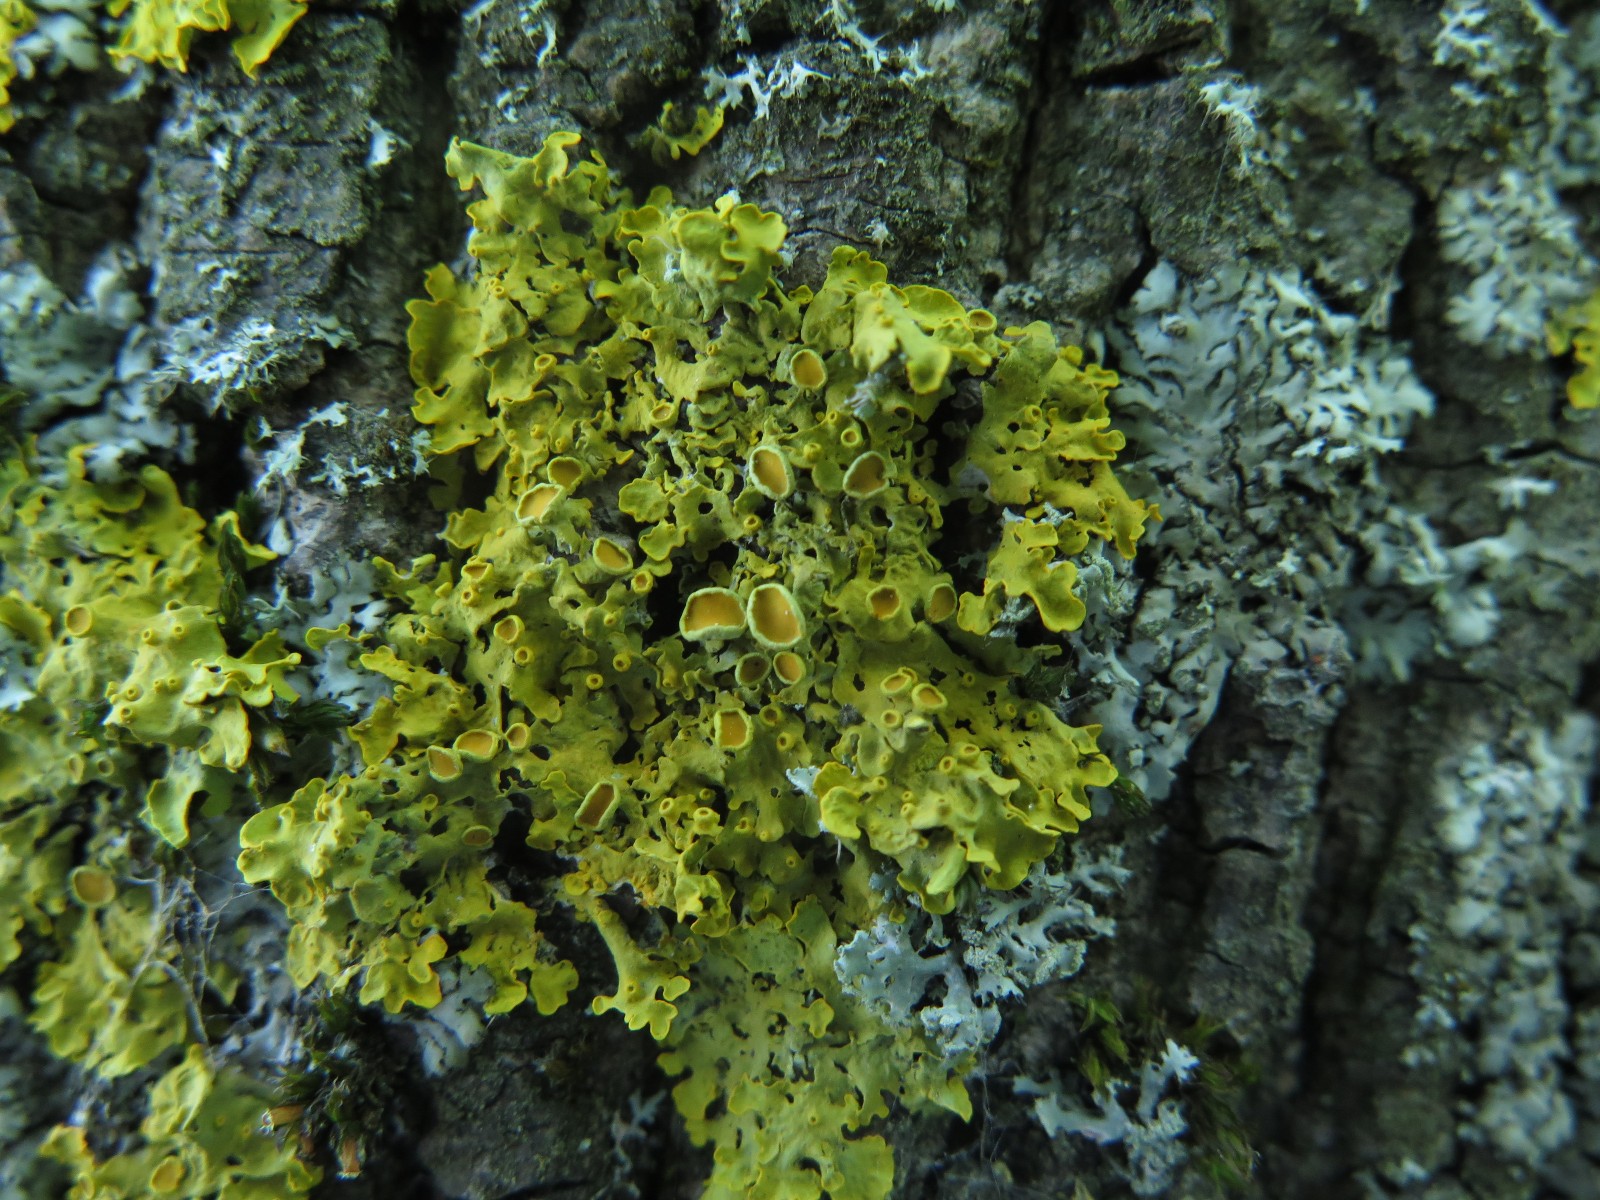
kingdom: Fungi
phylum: Ascomycota
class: Lecanoromycetes
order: Teloschistales
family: Teloschistaceae
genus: Xanthoria
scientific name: Xanthoria parietina
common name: almindelig væggelav
